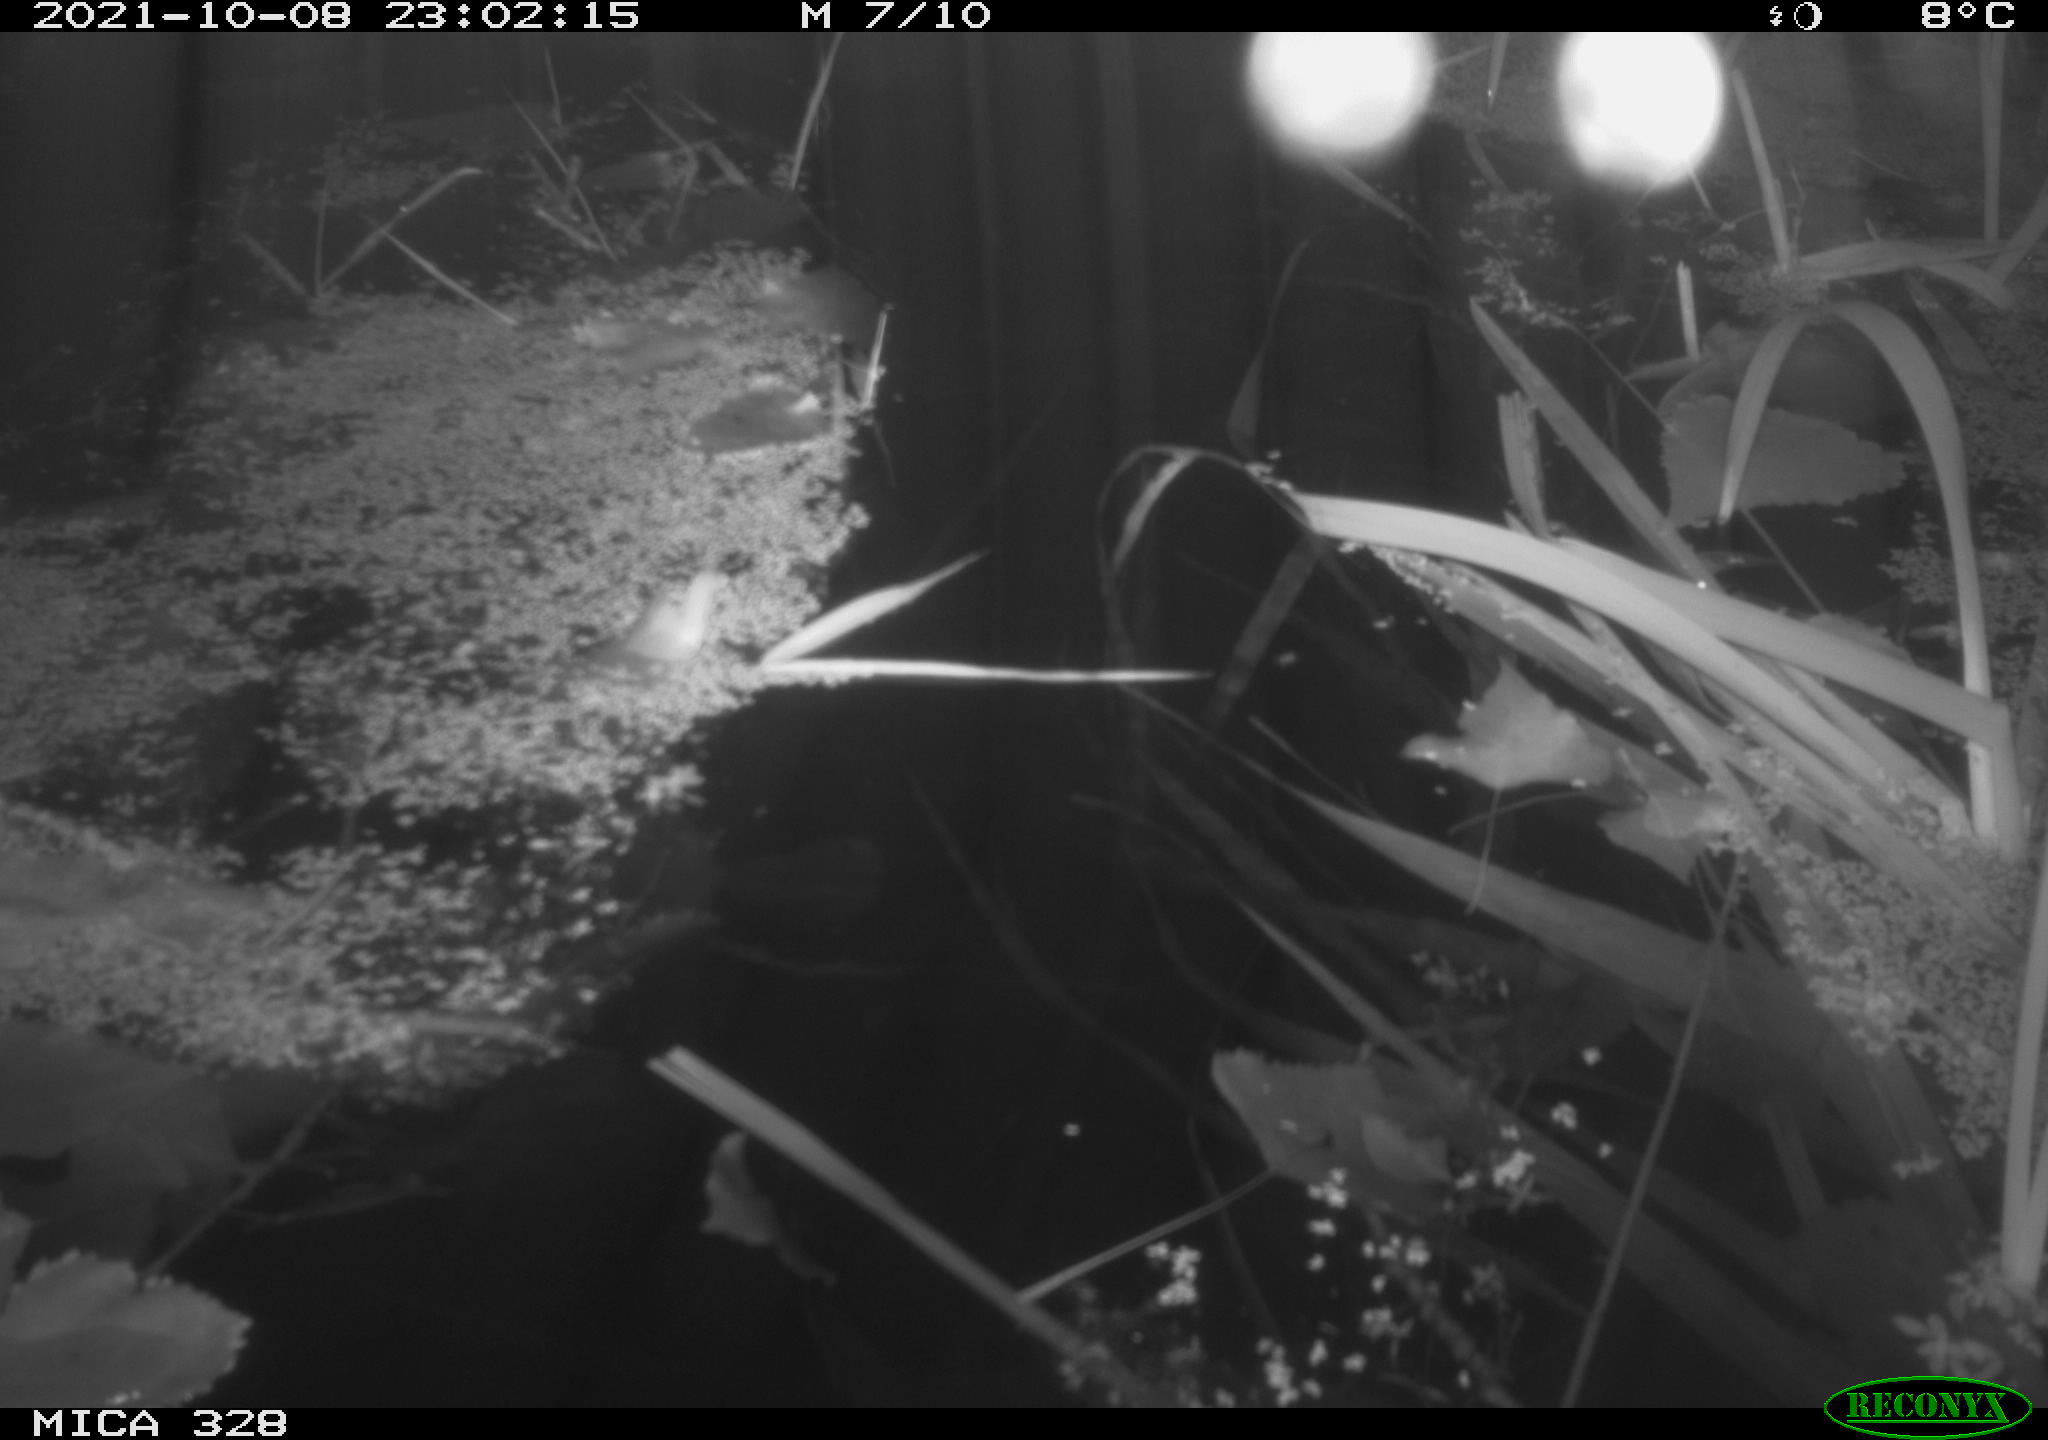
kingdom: Animalia
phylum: Chordata
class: Mammalia
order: Rodentia
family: Cricetidae
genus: Ondatra
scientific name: Ondatra zibethicus
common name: Muskrat
